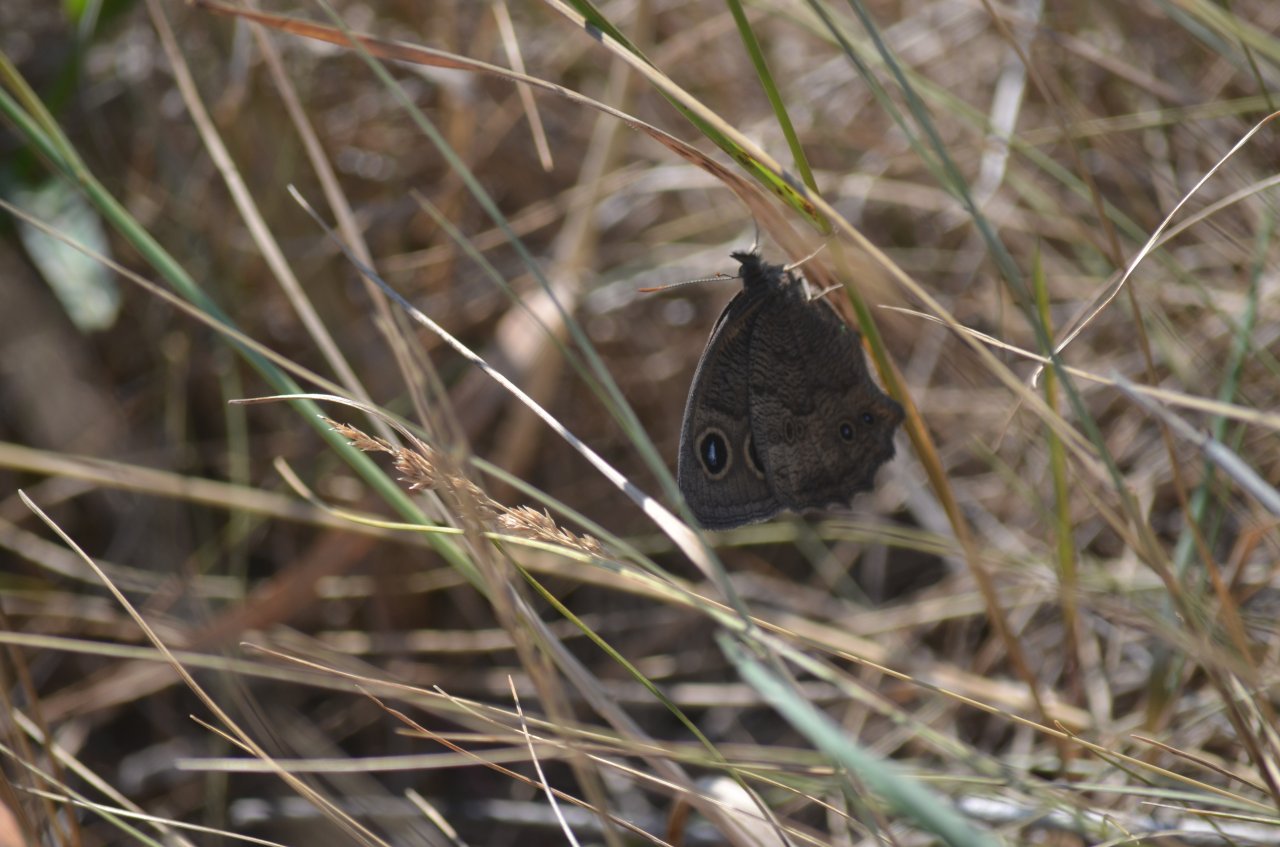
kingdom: Animalia
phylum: Arthropoda
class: Insecta
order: Lepidoptera
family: Nymphalidae
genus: Cercyonis
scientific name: Cercyonis pegala
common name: Common Wood-Nymph
